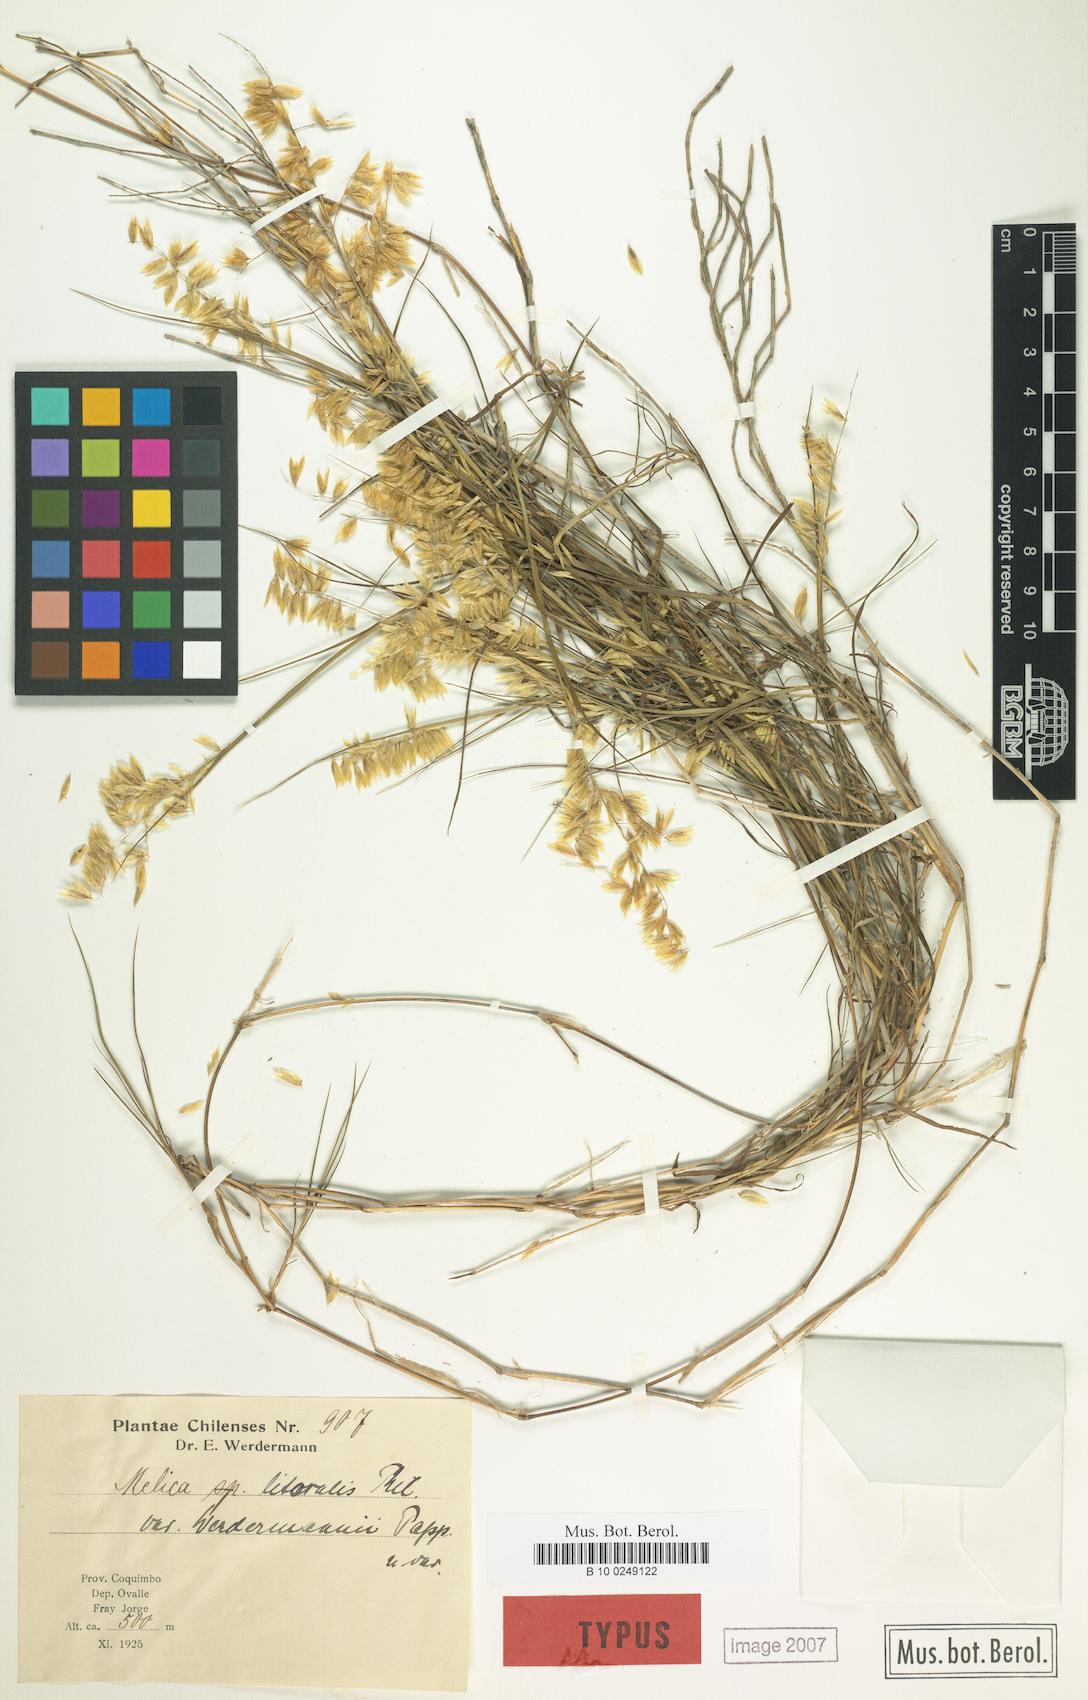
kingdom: Plantae
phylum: Tracheophyta
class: Liliopsida
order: Poales
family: Poaceae
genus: Melica
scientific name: Melica paulsenii
